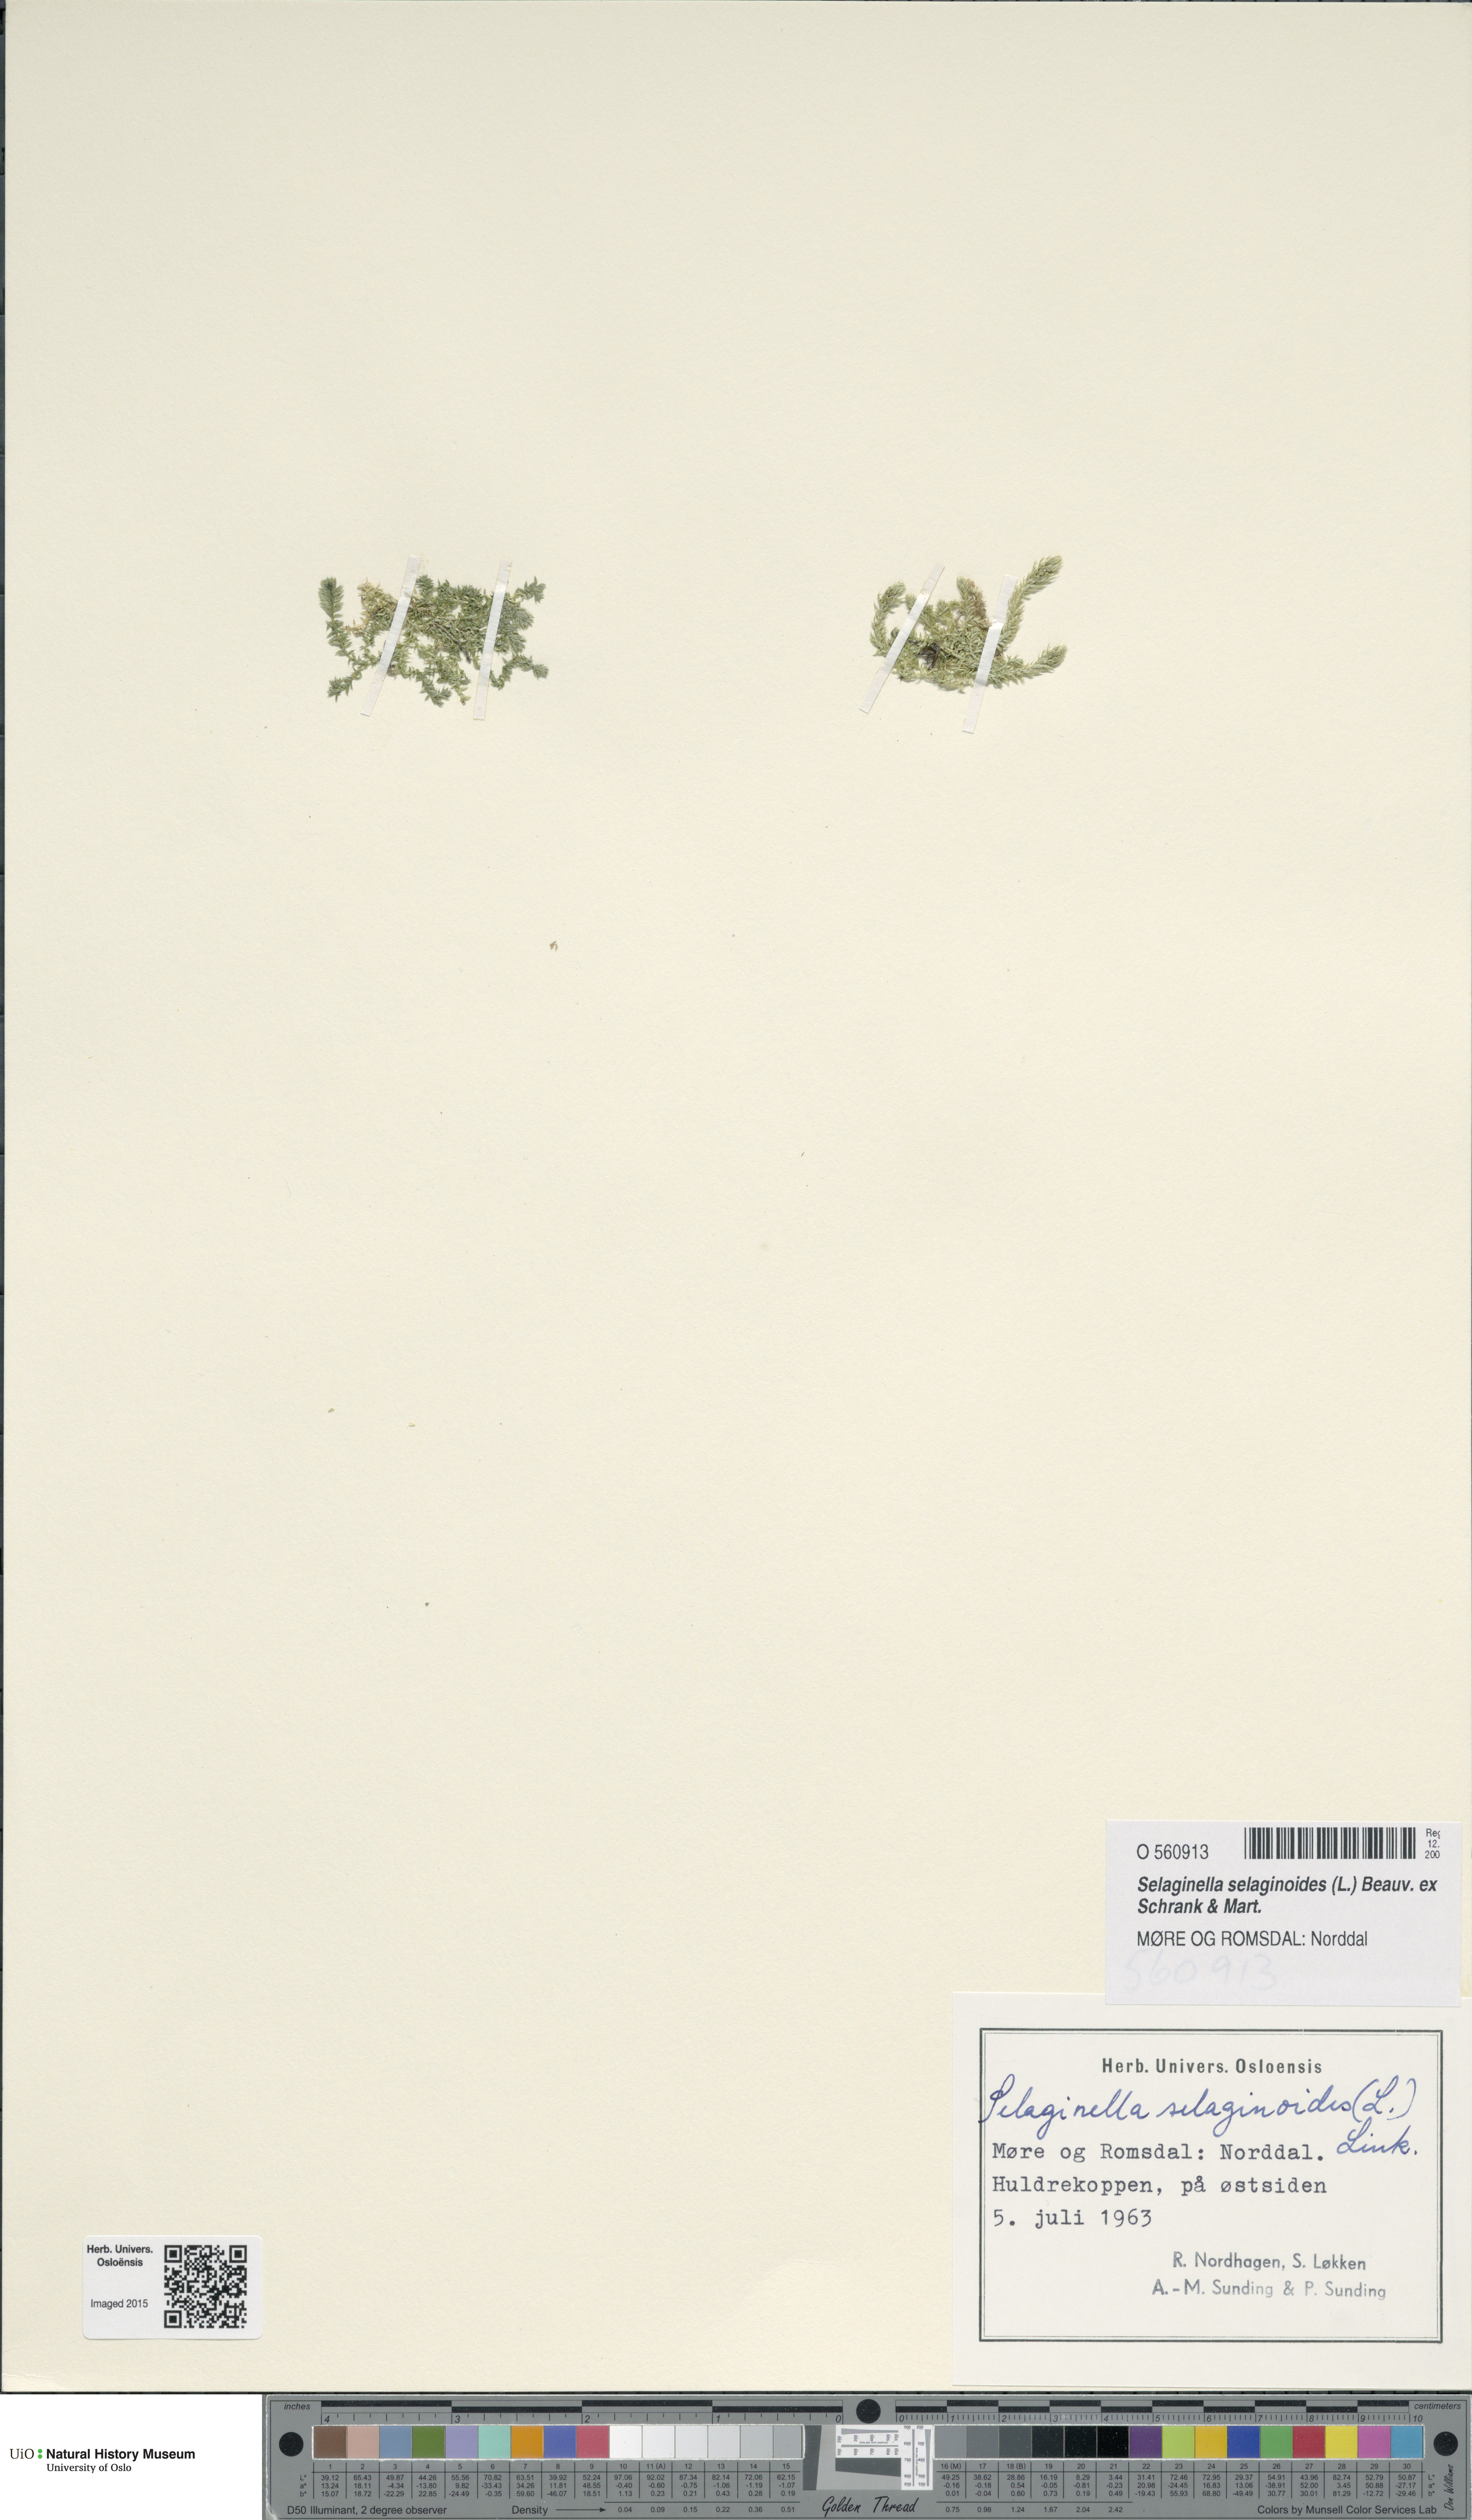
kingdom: Plantae
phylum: Tracheophyta
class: Lycopodiopsida
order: Selaginellales
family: Selaginellaceae
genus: Selaginella
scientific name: Selaginella selaginoides
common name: Prickly mountain-moss
